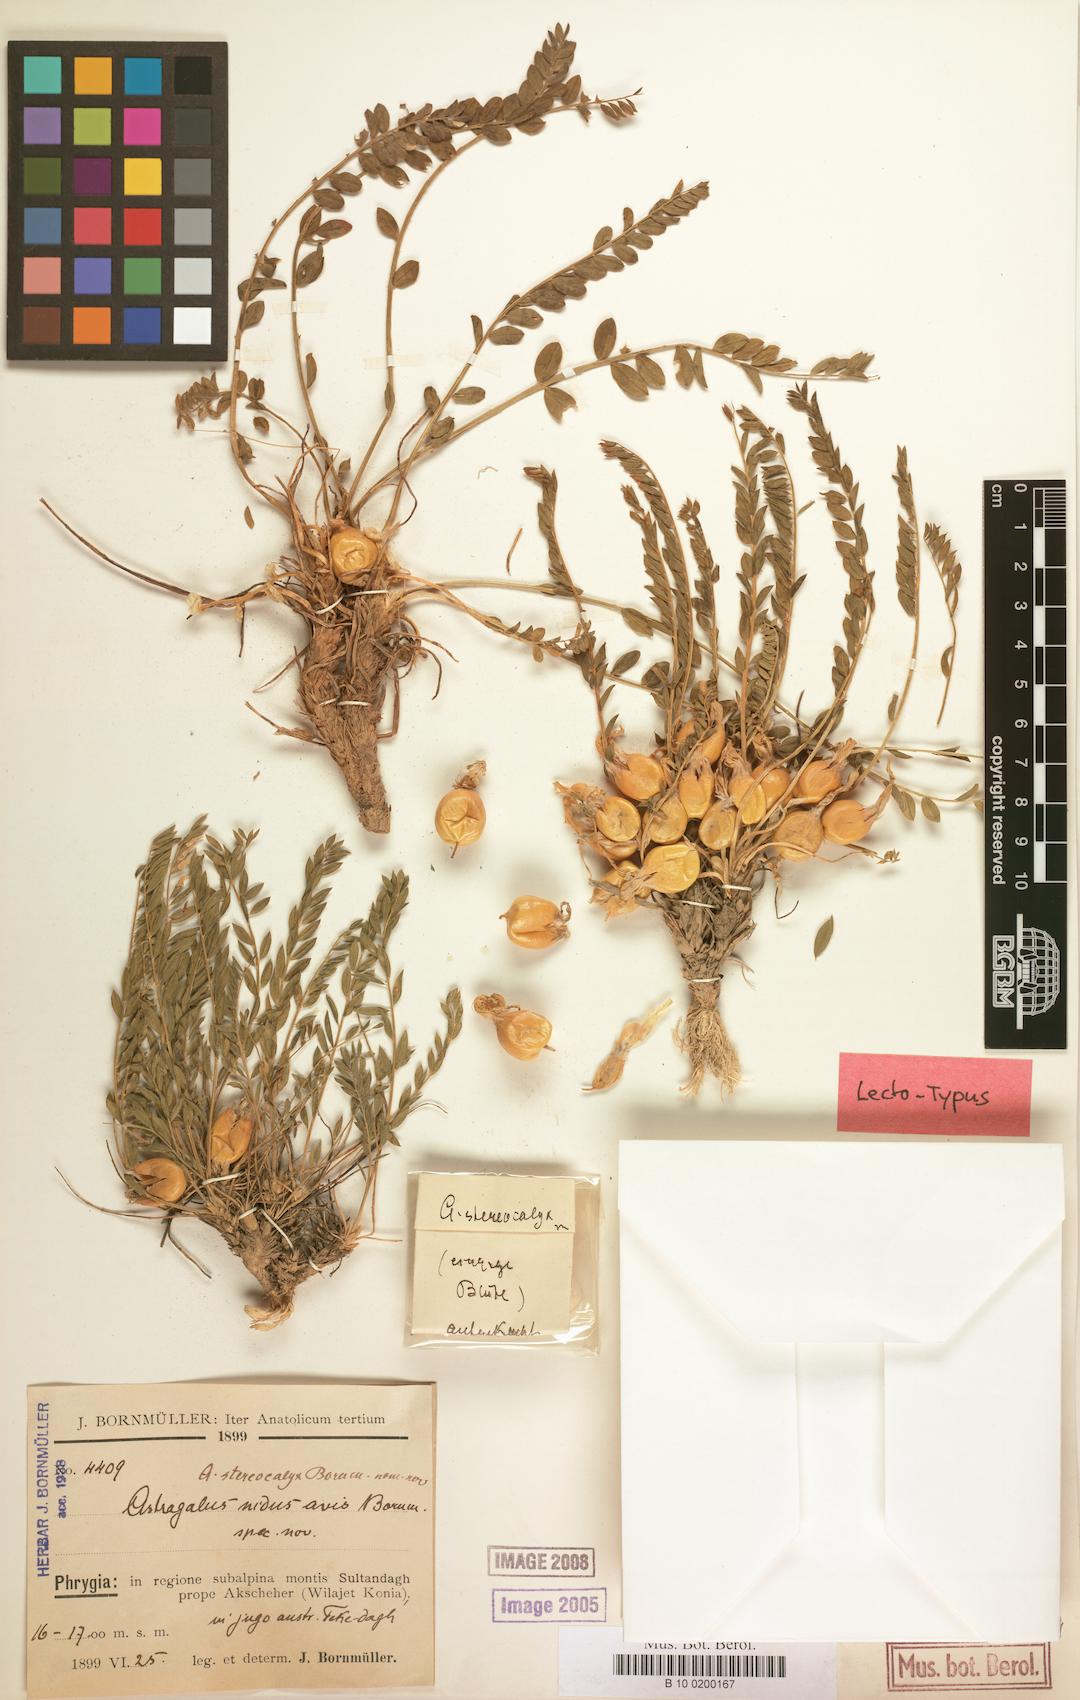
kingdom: Plantae
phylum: Tracheophyta
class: Magnoliopsida
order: Fabales
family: Fabaceae
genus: Astragalus
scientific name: Astragalus physocalyx
